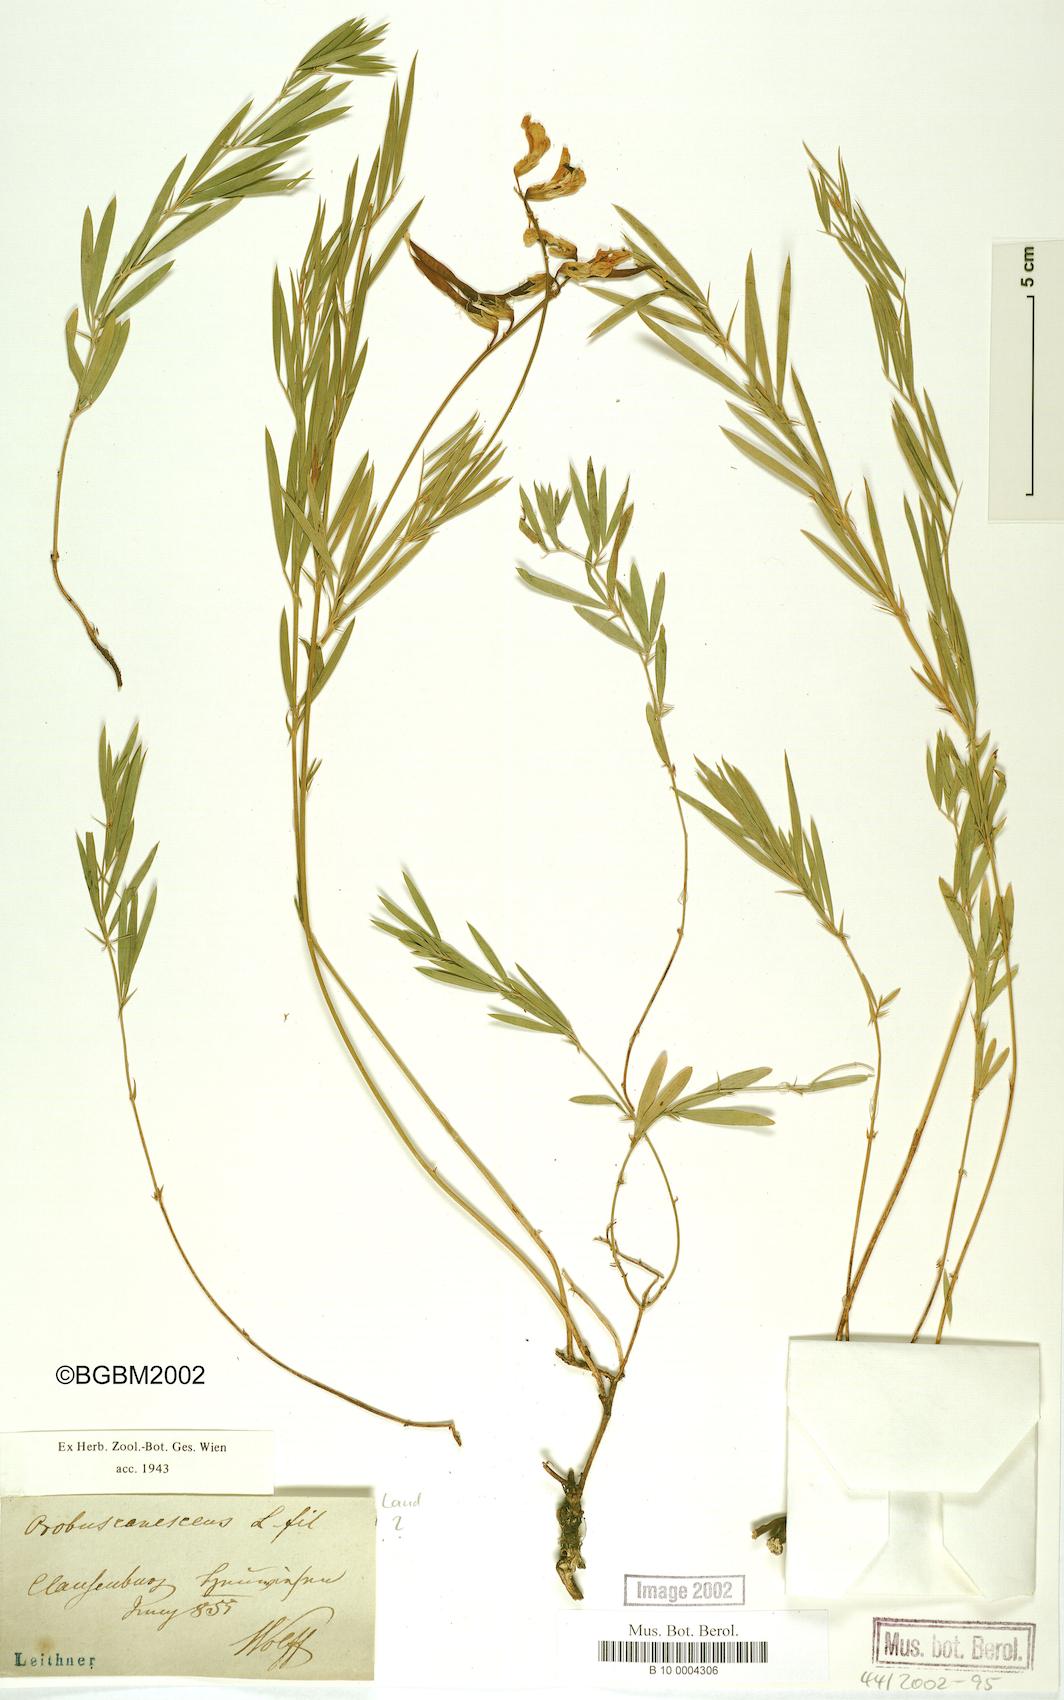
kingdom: Plantae
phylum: Tracheophyta
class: Magnoliopsida
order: Fabales
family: Fabaceae
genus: Lathyrus
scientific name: Lathyrus filiformis
